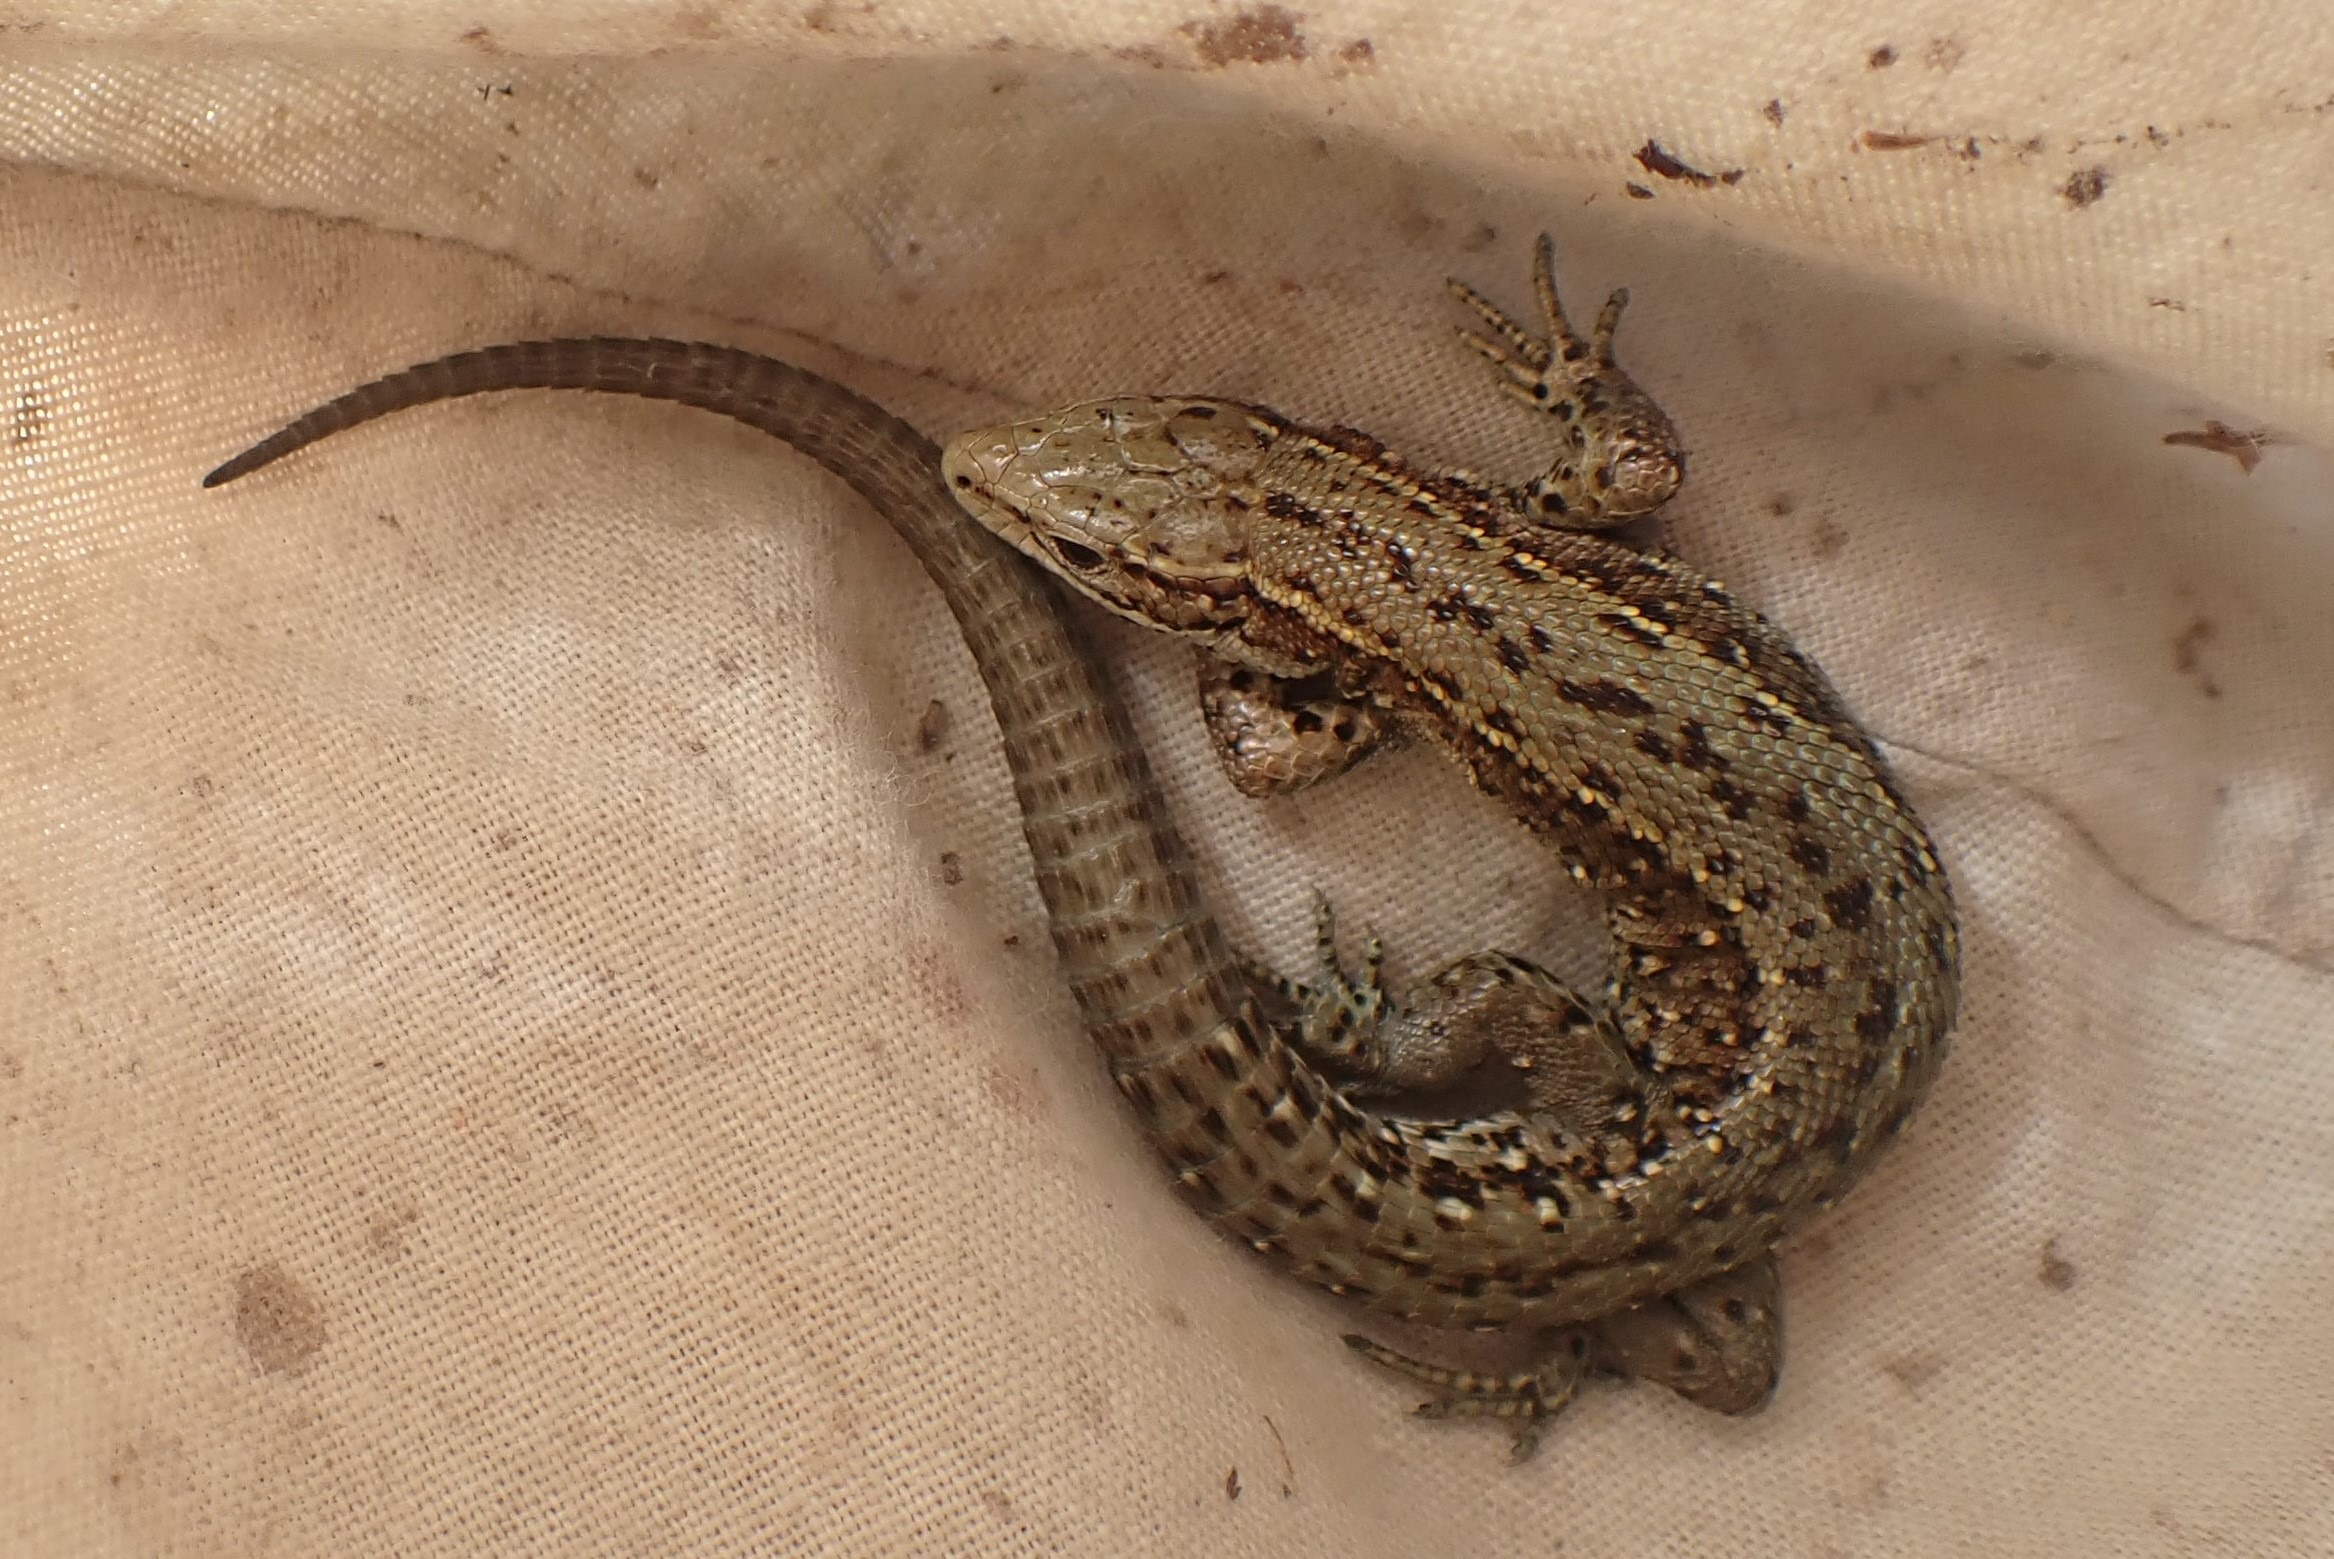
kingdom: Animalia
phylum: Chordata
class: Squamata
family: Lacertidae
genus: Zootoca
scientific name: Zootoca vivipara
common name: Skovfirben
